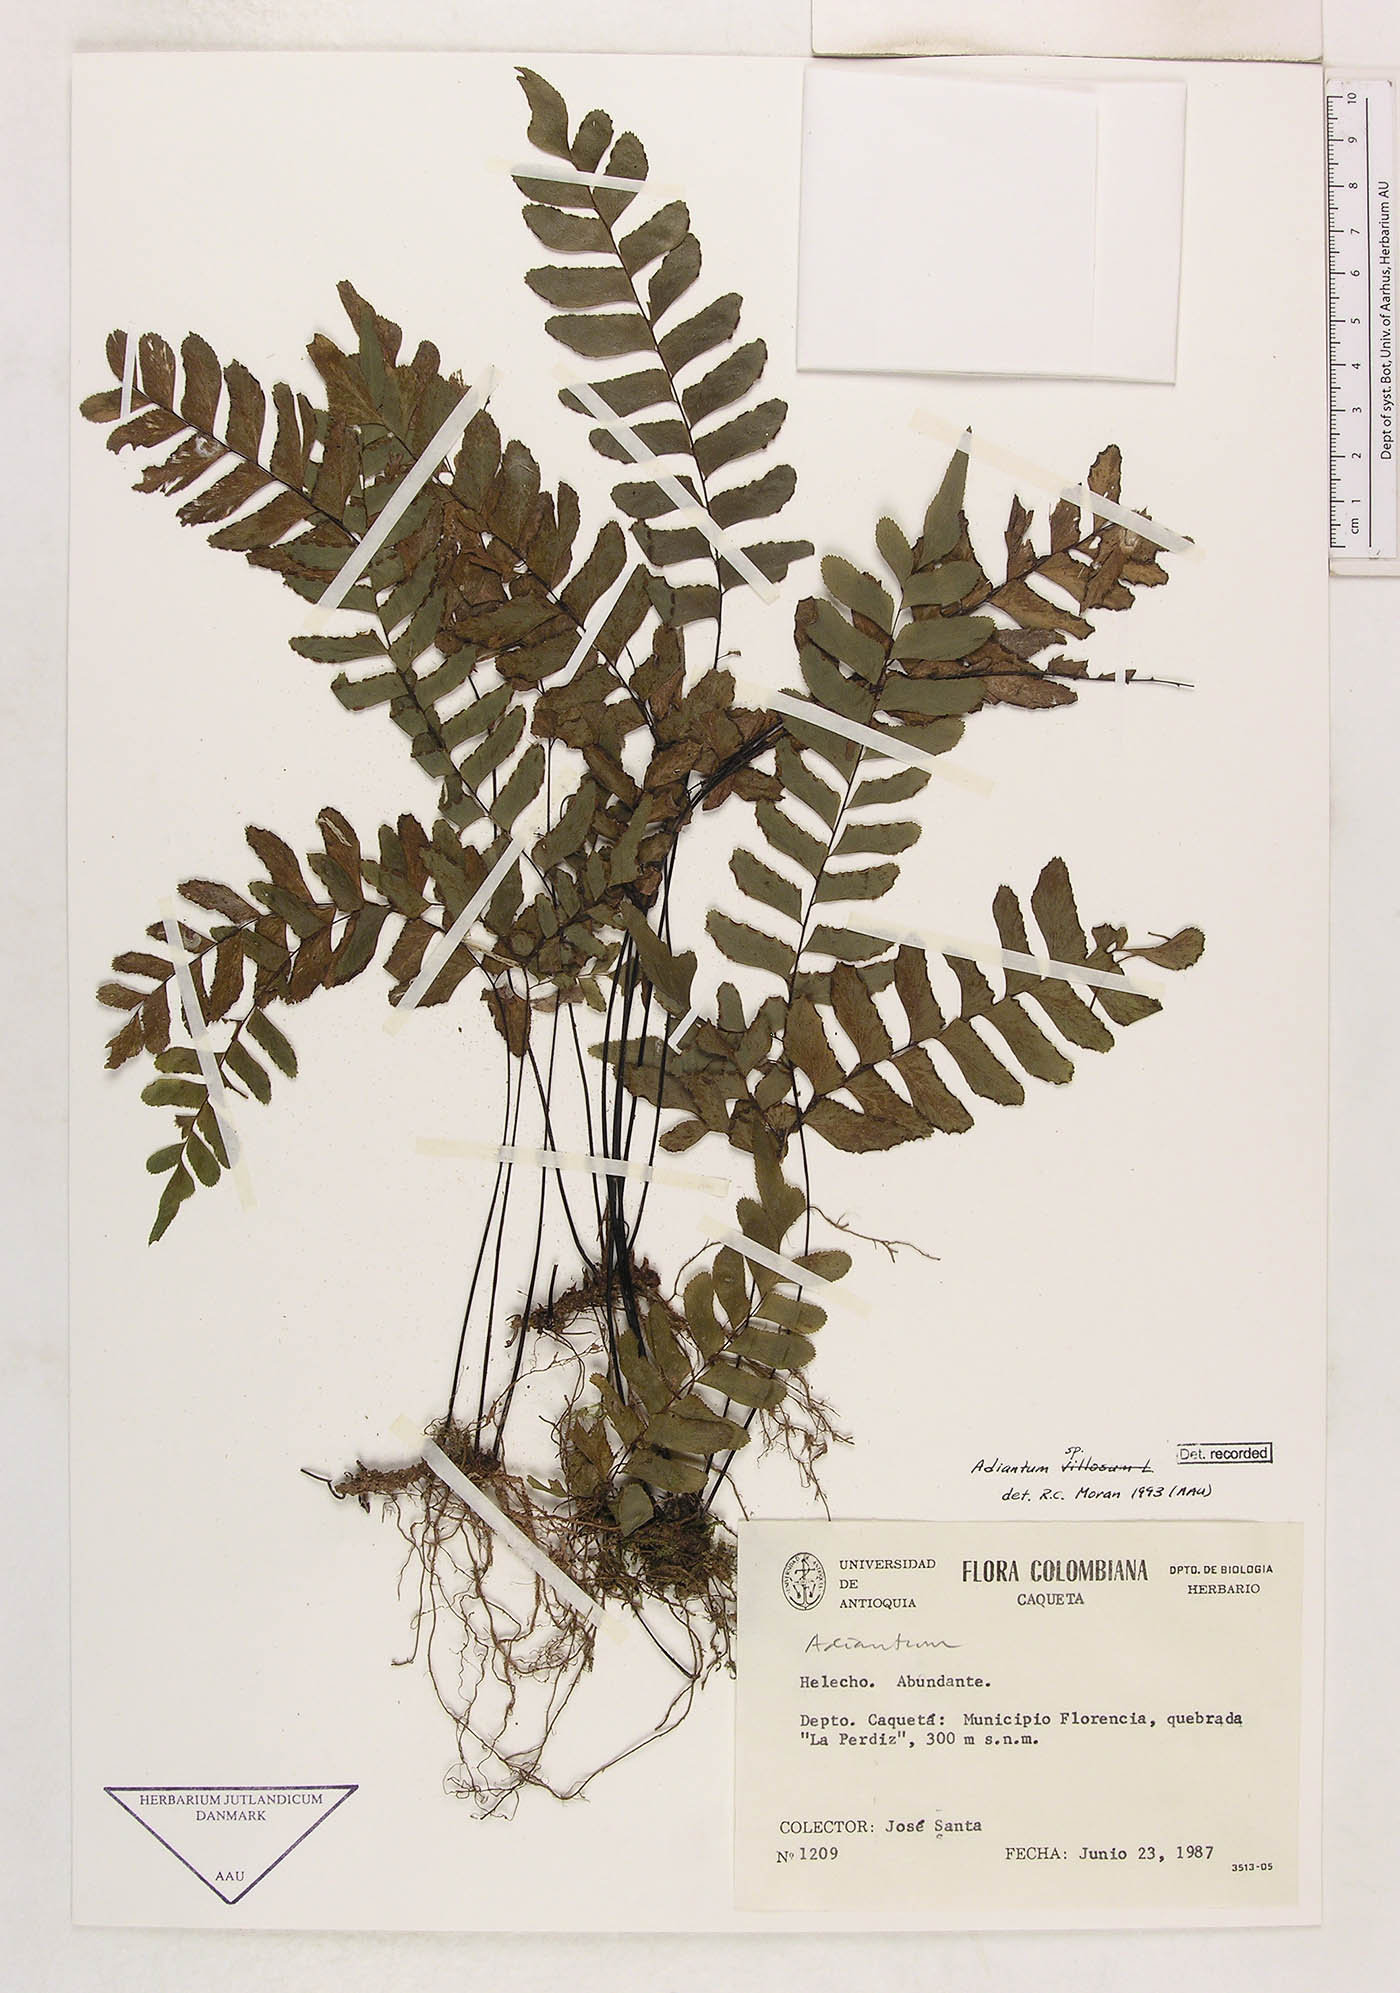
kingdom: Plantae
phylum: Tracheophyta
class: Polypodiopsida
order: Polypodiales
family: Pteridaceae
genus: Adiantum
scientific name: Adiantum
